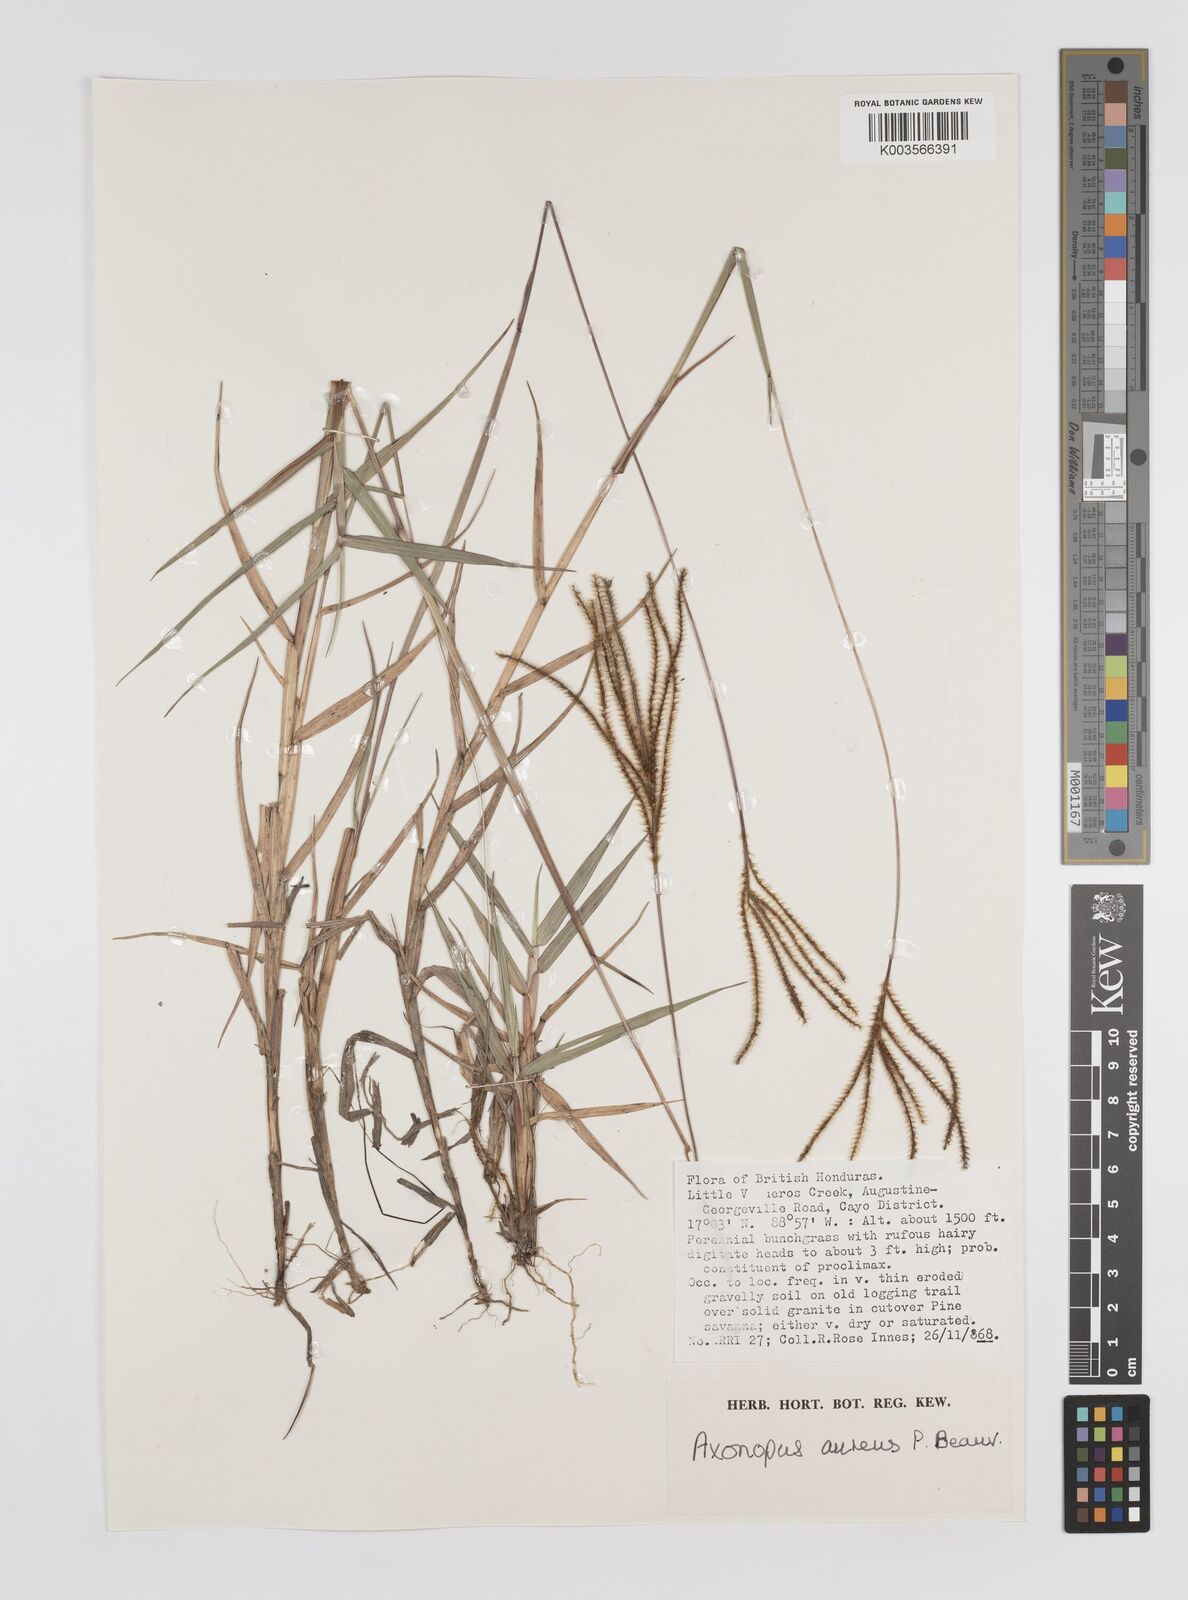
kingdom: Plantae
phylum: Tracheophyta
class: Liliopsida
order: Poales
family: Poaceae
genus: Axonopus
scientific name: Axonopus aureus
